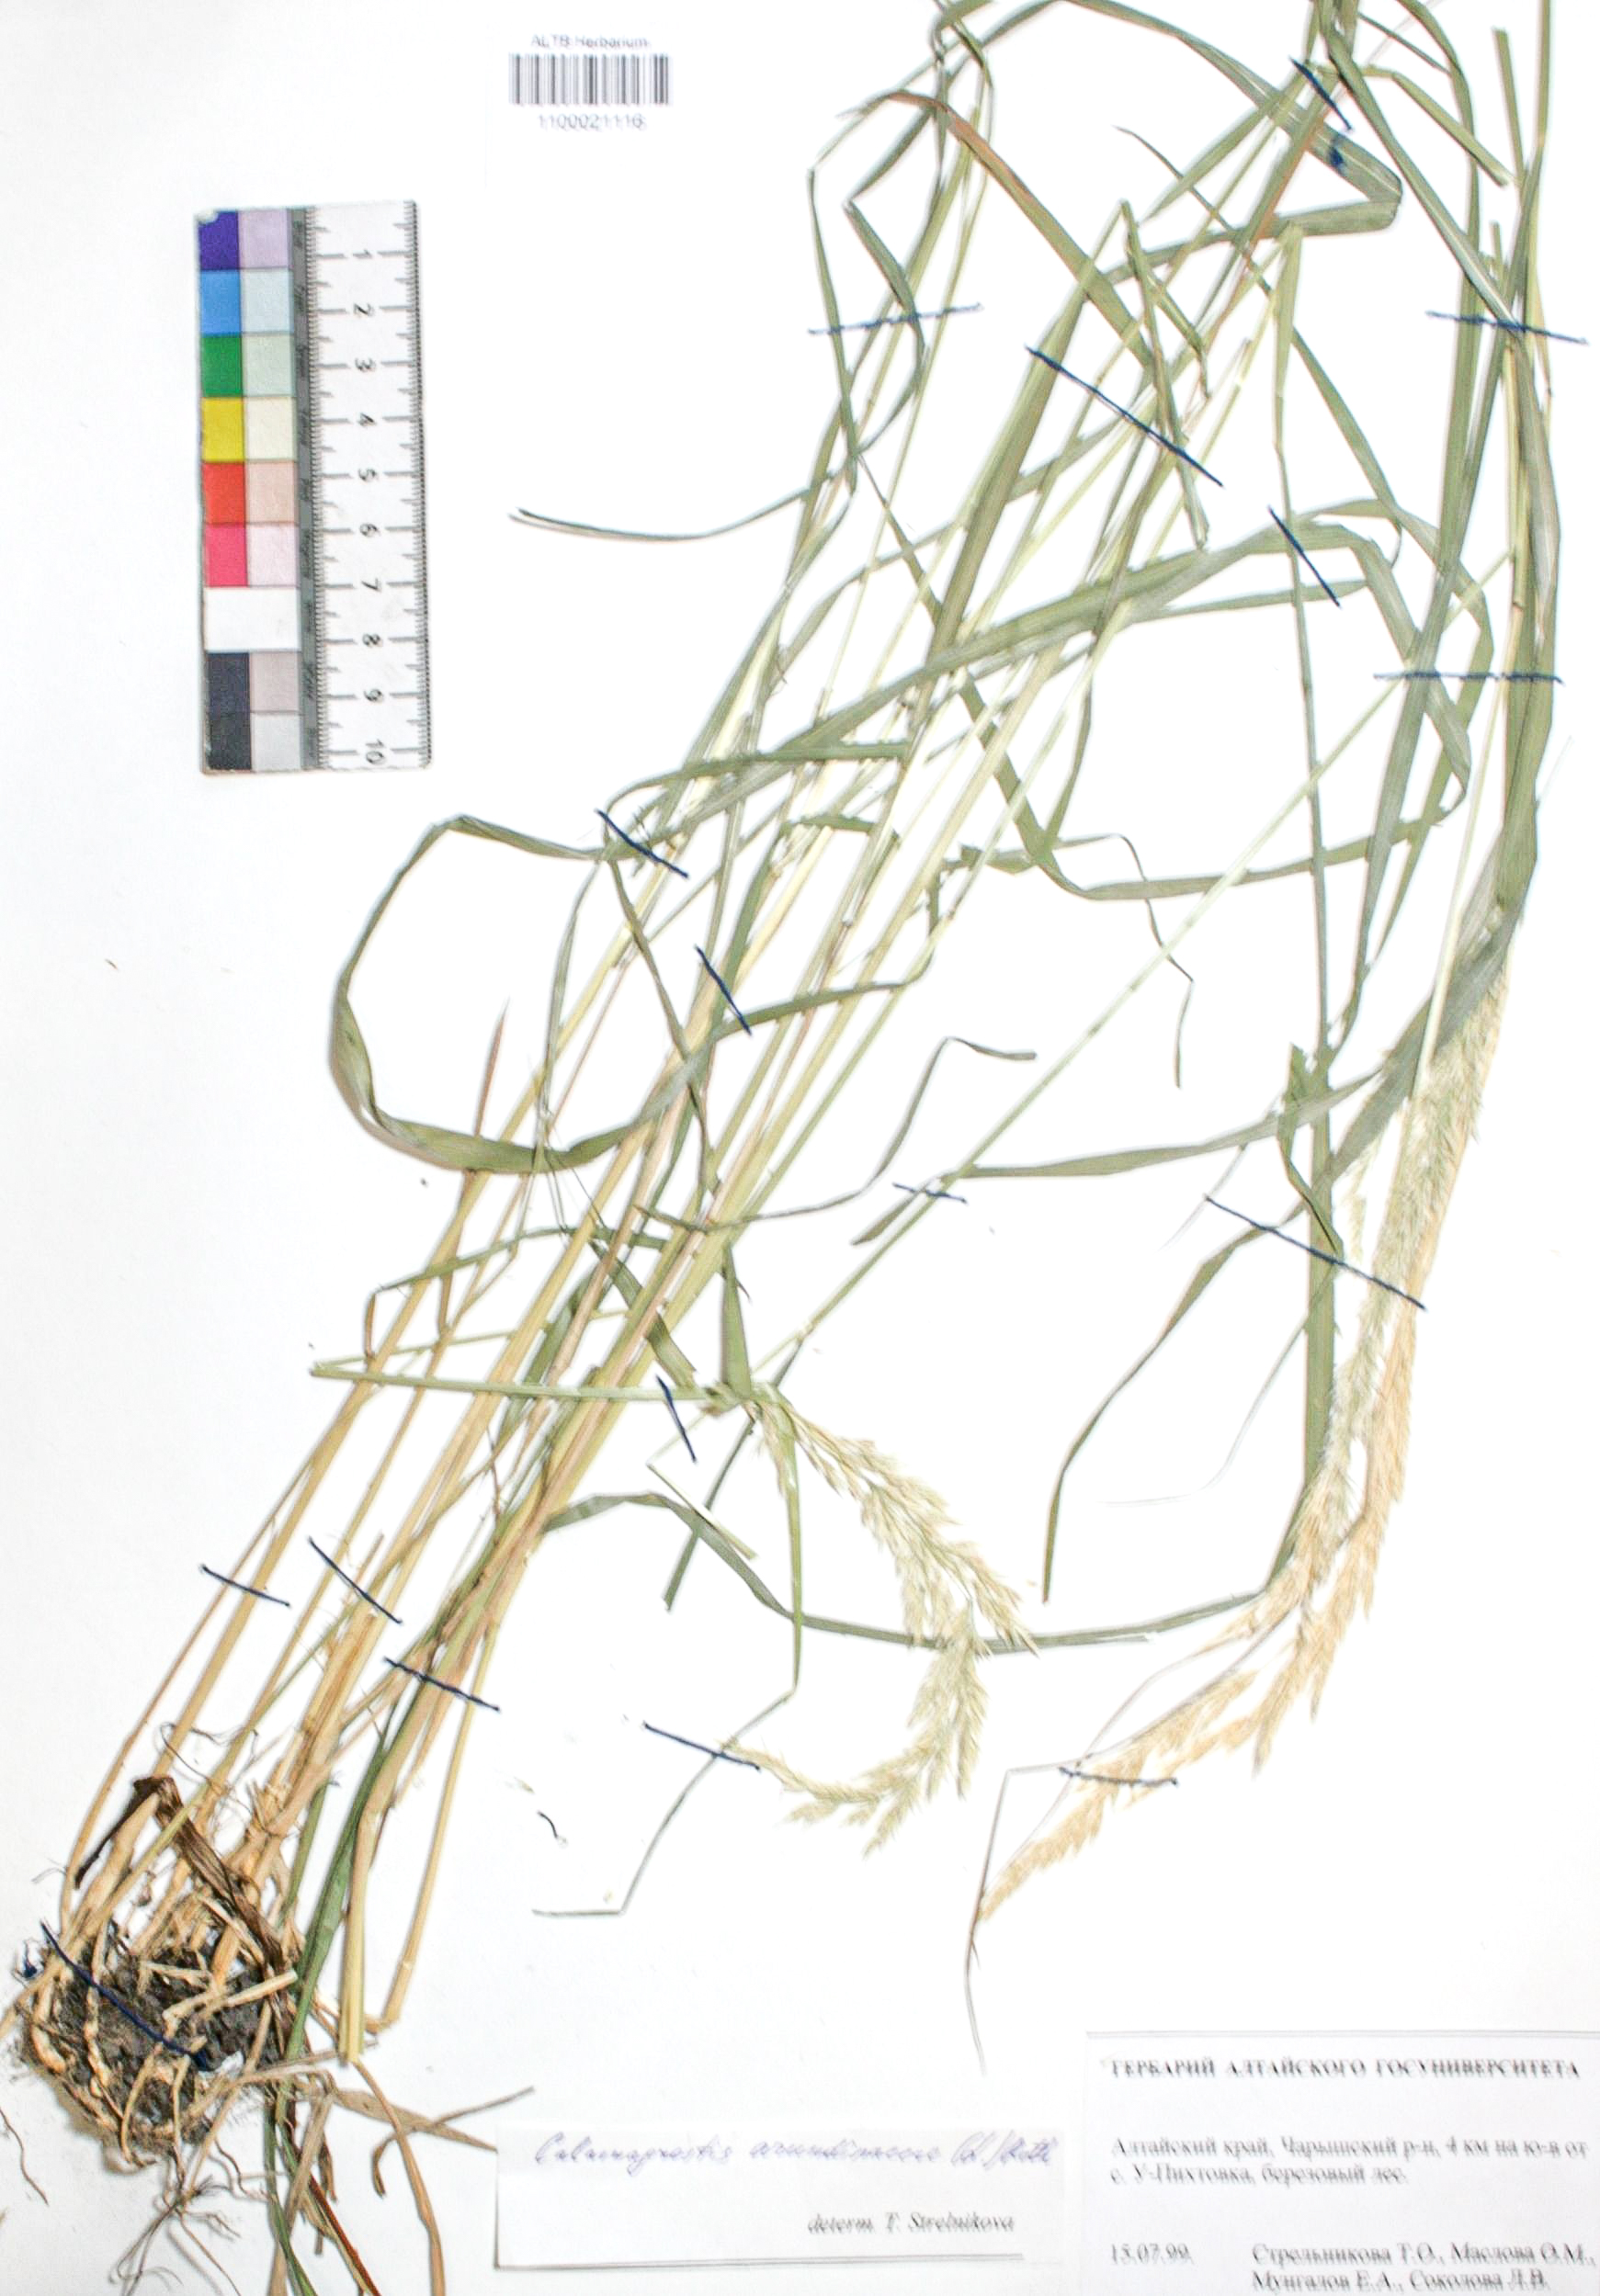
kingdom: Plantae
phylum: Tracheophyta
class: Liliopsida
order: Poales
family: Poaceae
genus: Calamagrostis
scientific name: Calamagrostis arundinacea
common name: Metskastik
